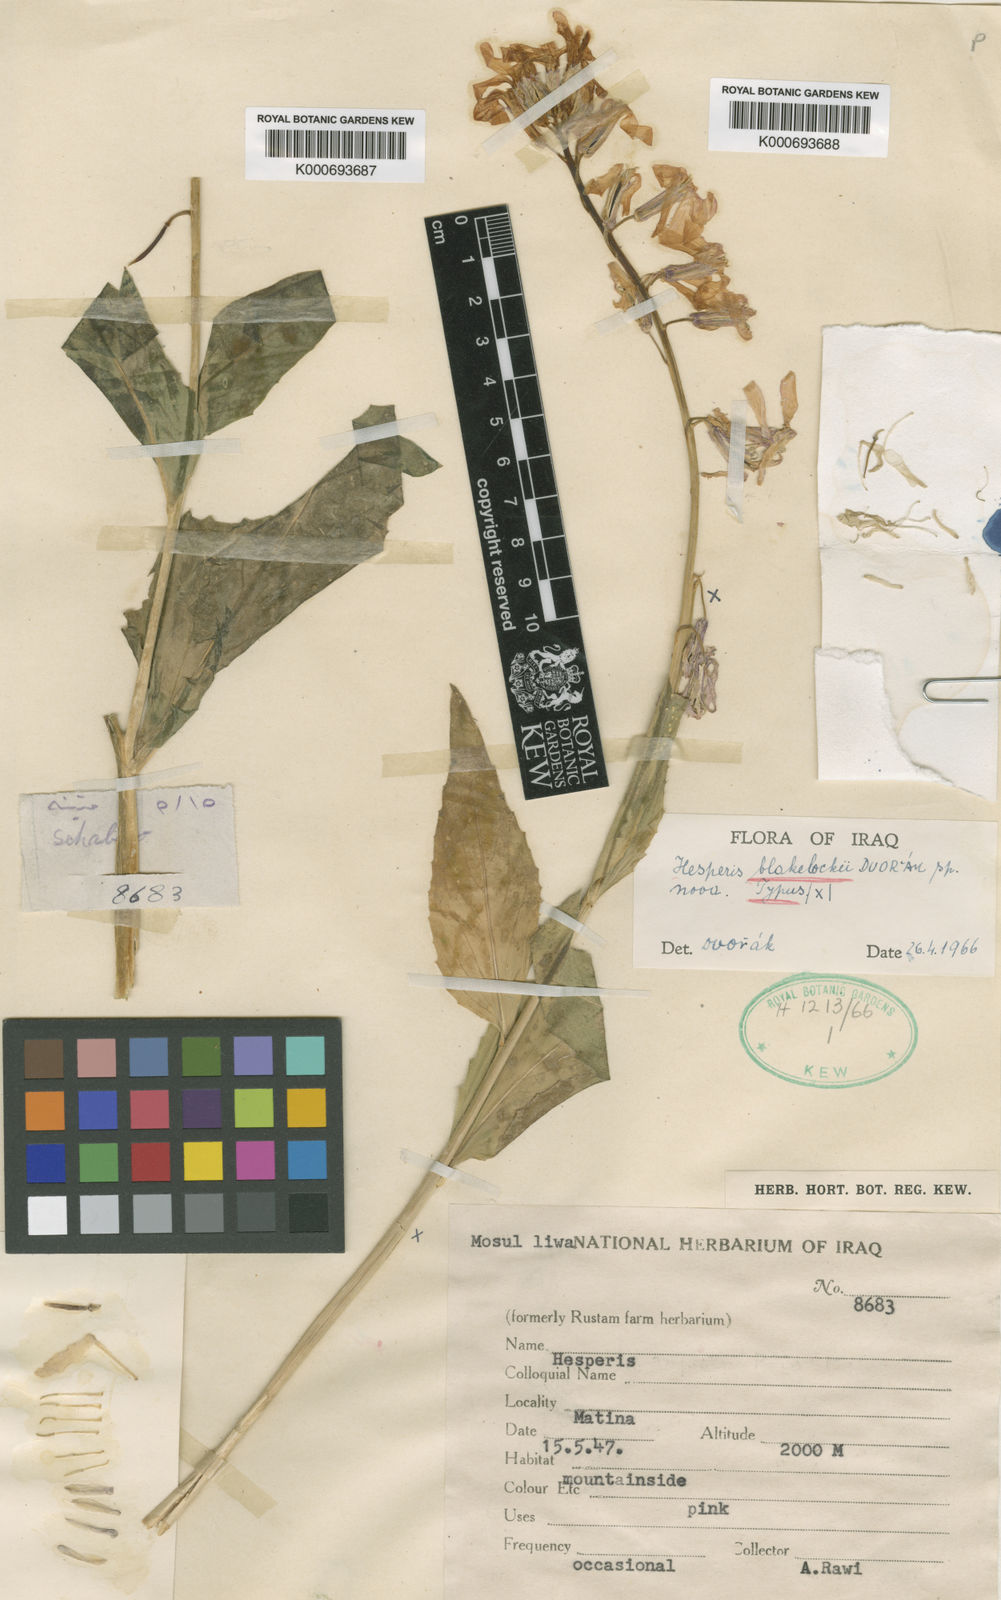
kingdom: Plantae
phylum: Tracheophyta
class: Magnoliopsida
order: Brassicales
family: Brassicaceae
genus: Hesperis
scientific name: Hesperis blakelockii
